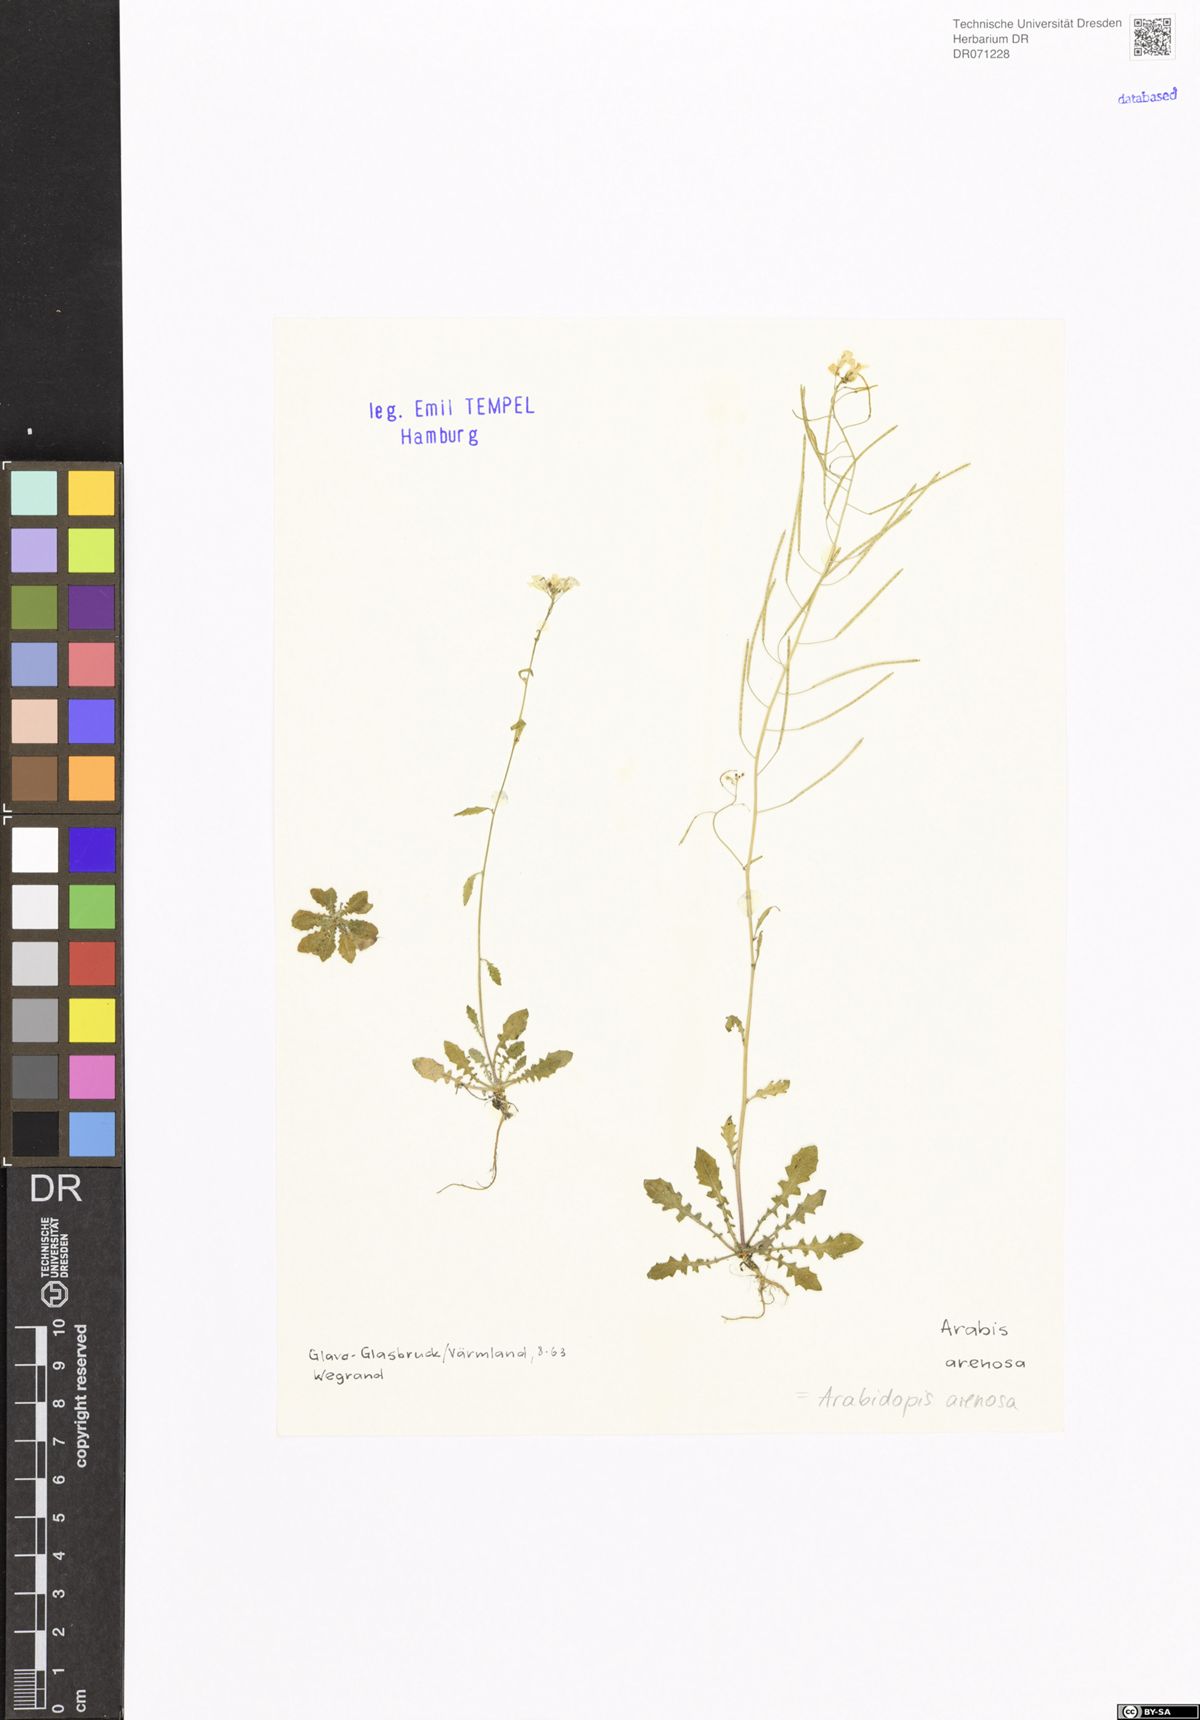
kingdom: Plantae
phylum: Tracheophyta
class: Magnoliopsida
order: Brassicales
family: Brassicaceae
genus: Arabidopsis
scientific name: Arabidopsis arenosa
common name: Sand rock-cress
